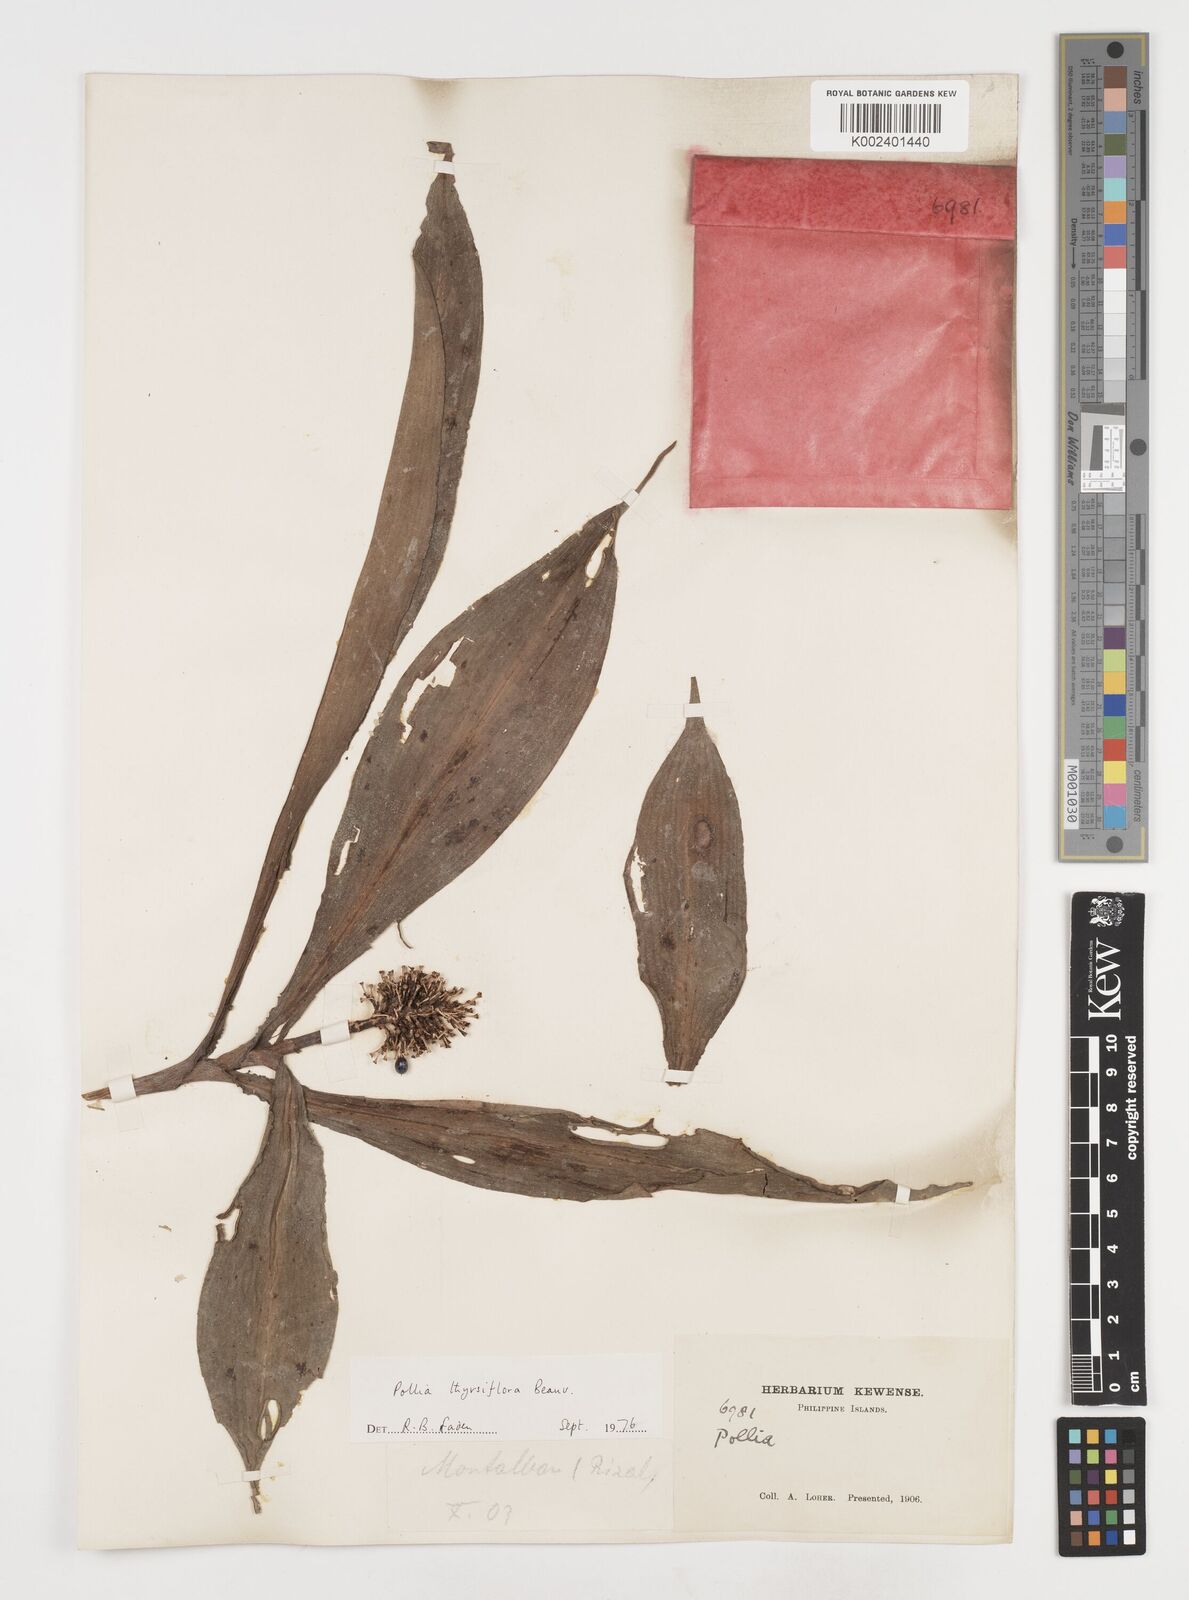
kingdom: Plantae
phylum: Tracheophyta
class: Liliopsida
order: Commelinales
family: Commelinaceae
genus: Pollia
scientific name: Pollia thyrsiflora
